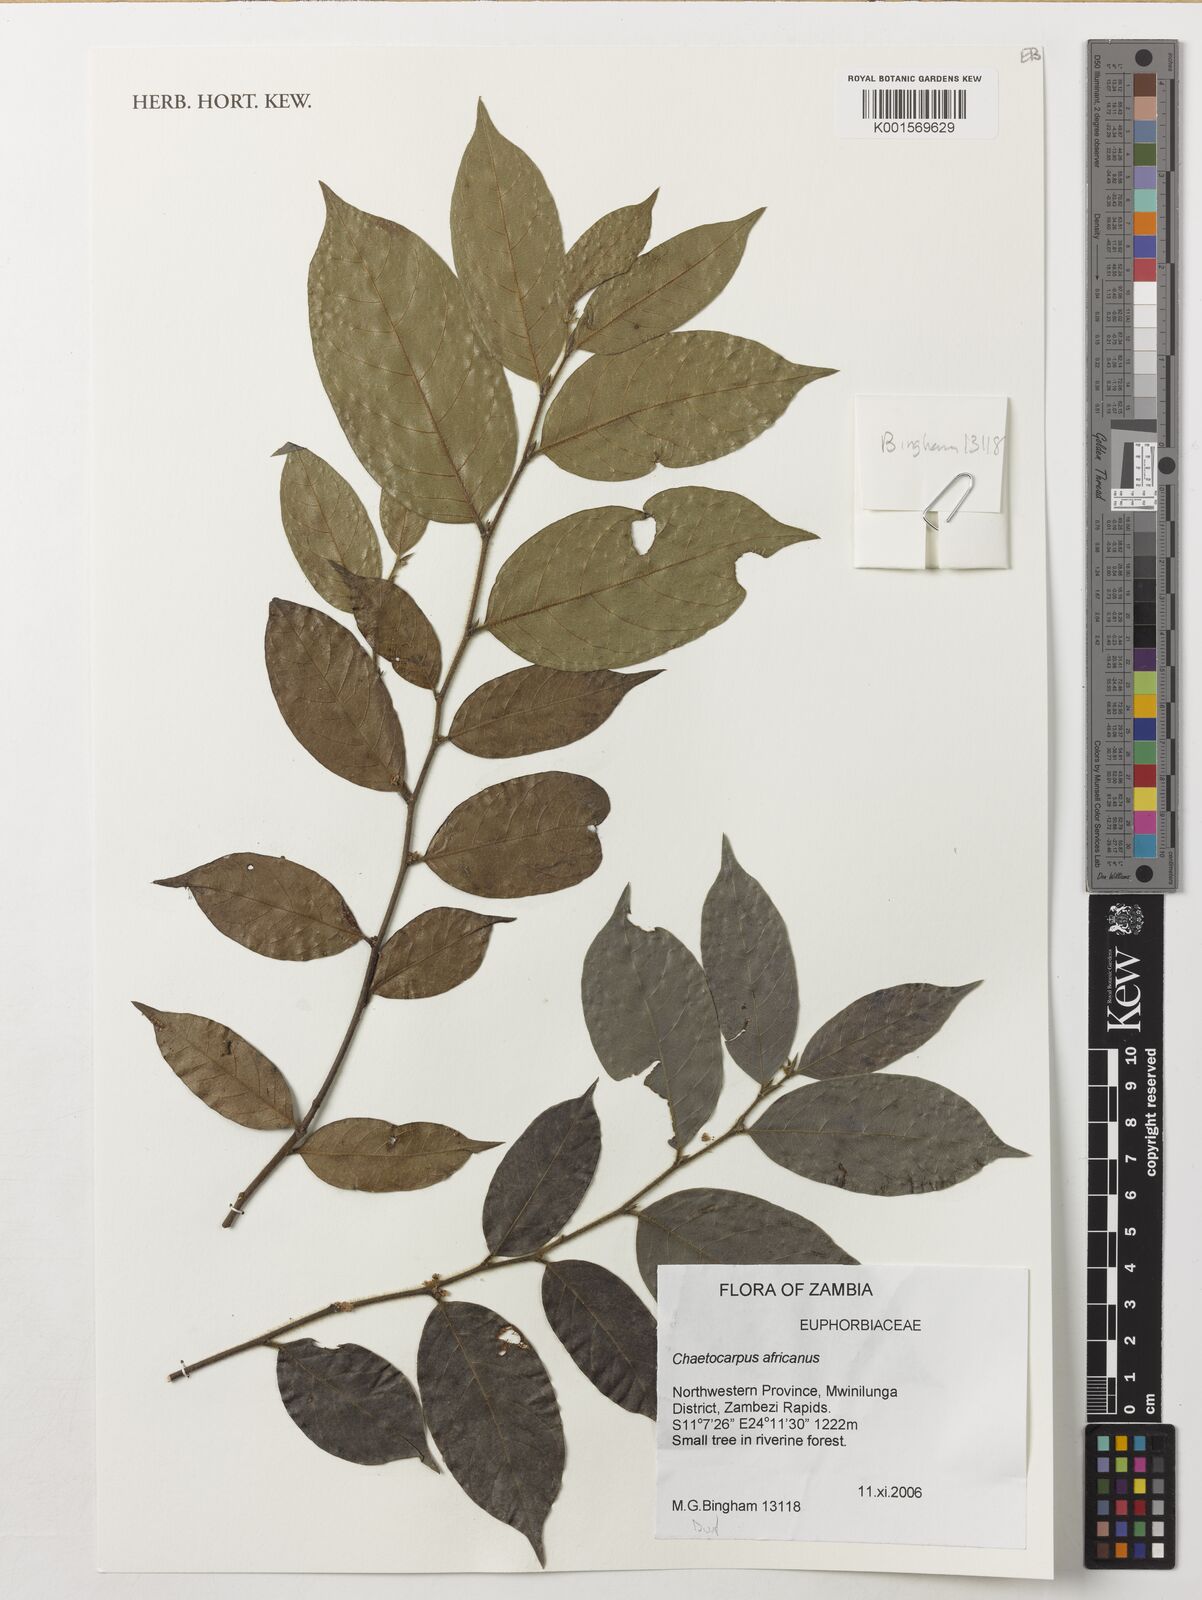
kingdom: Plantae
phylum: Tracheophyta
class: Magnoliopsida
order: Malpighiales
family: Peraceae
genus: Chaetocarpus
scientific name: Chaetocarpus africanus
